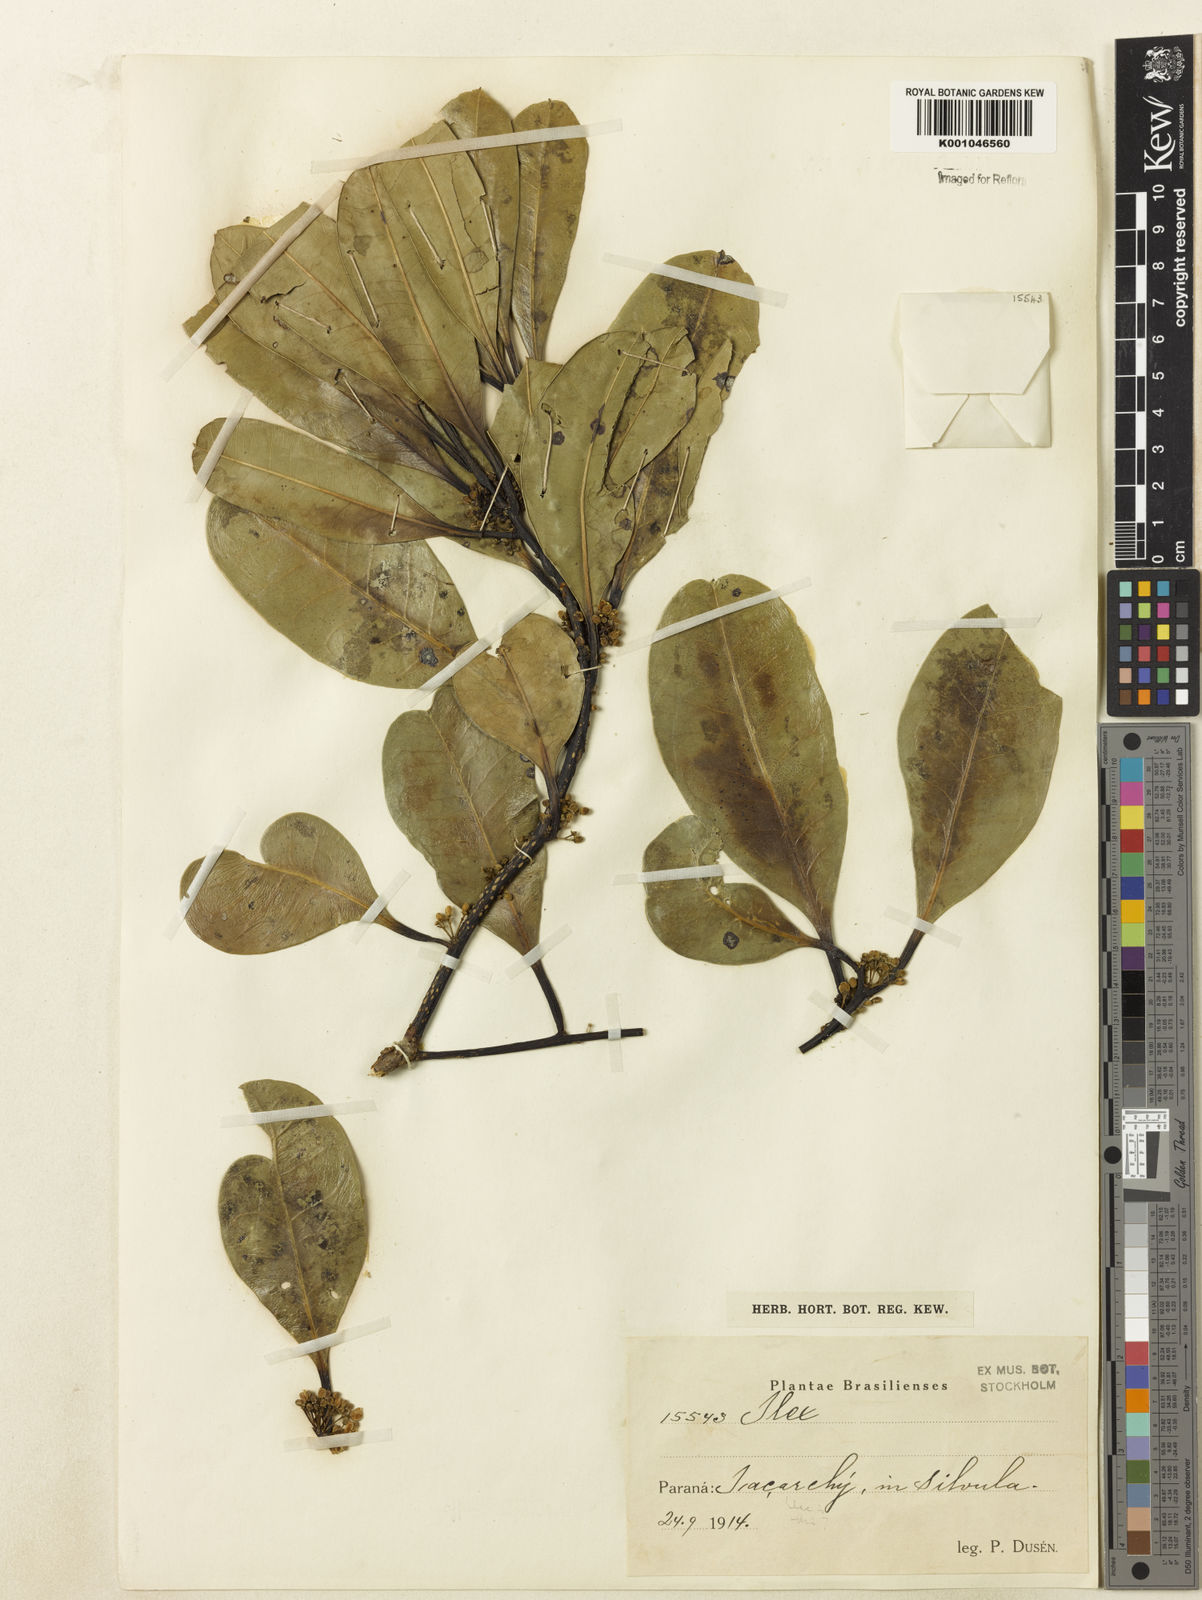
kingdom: Plantae
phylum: Tracheophyta
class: Magnoliopsida
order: Aquifoliales
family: Aquifoliaceae
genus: Ilex
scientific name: Ilex integerrima
